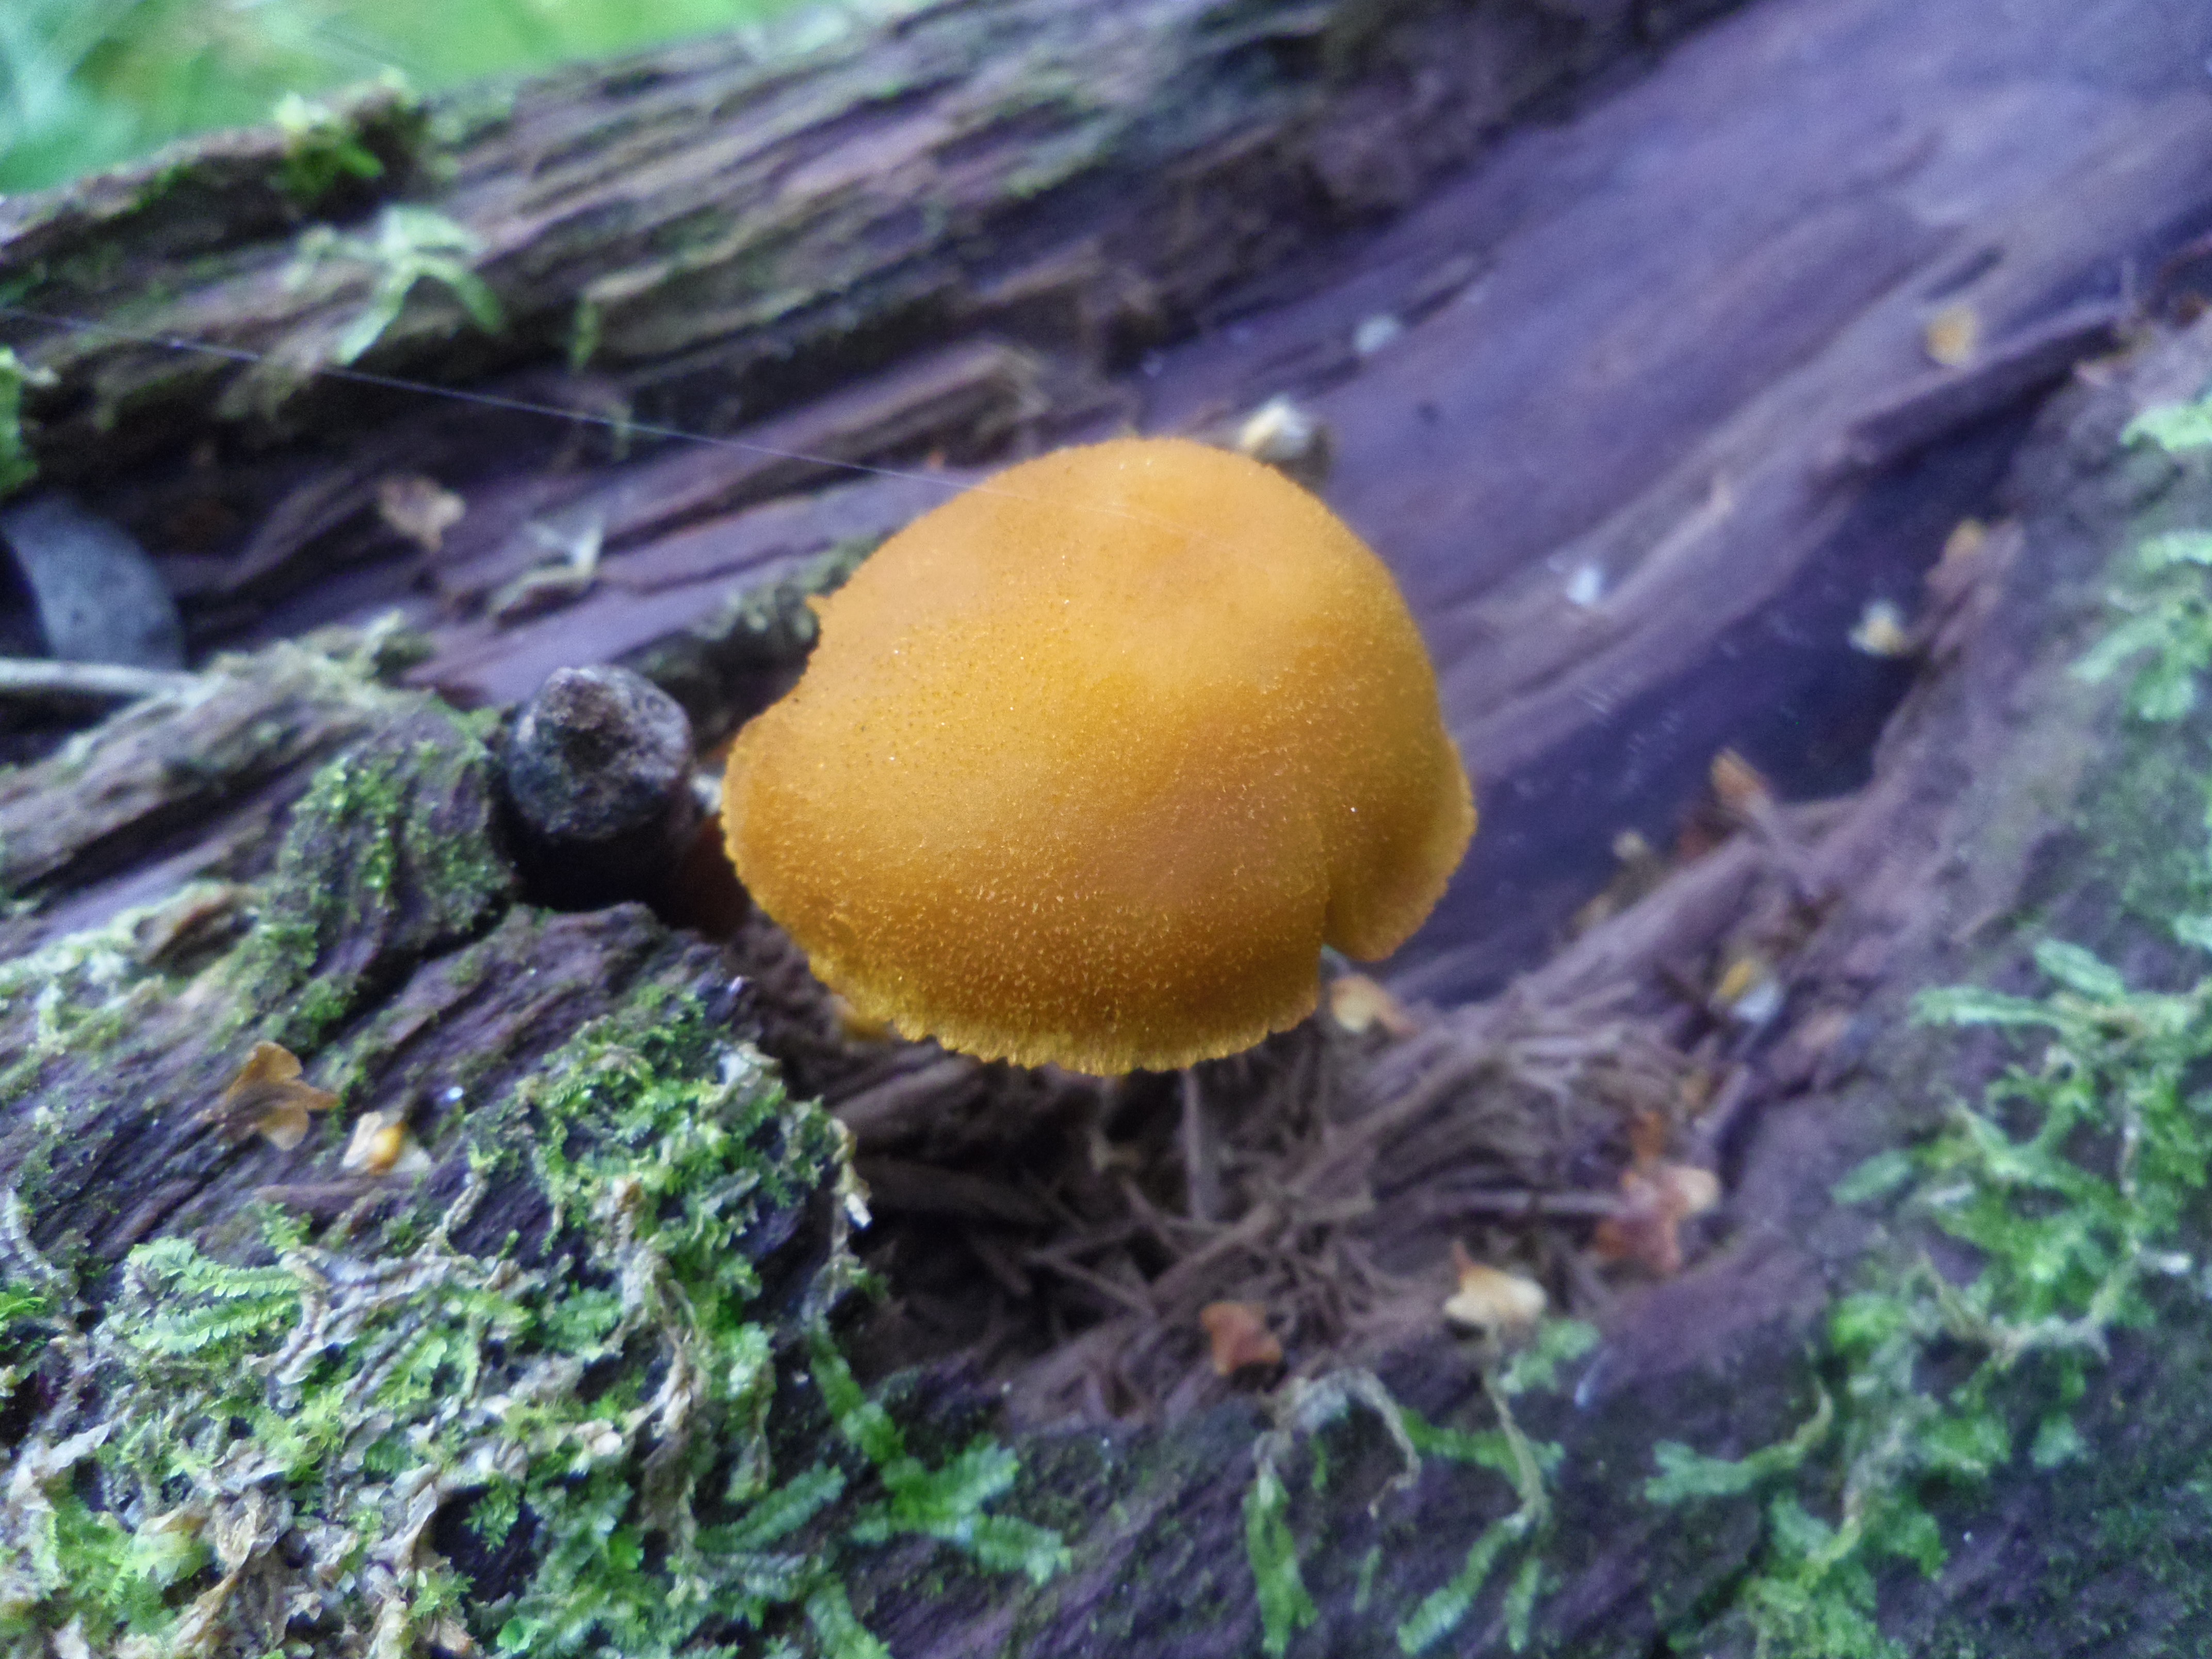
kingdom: Fungi
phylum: Basidiomycota
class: Agaricomycetes
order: Agaricales
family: Tubariaceae
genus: Flammulaster
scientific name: Flammulaster limulatus
